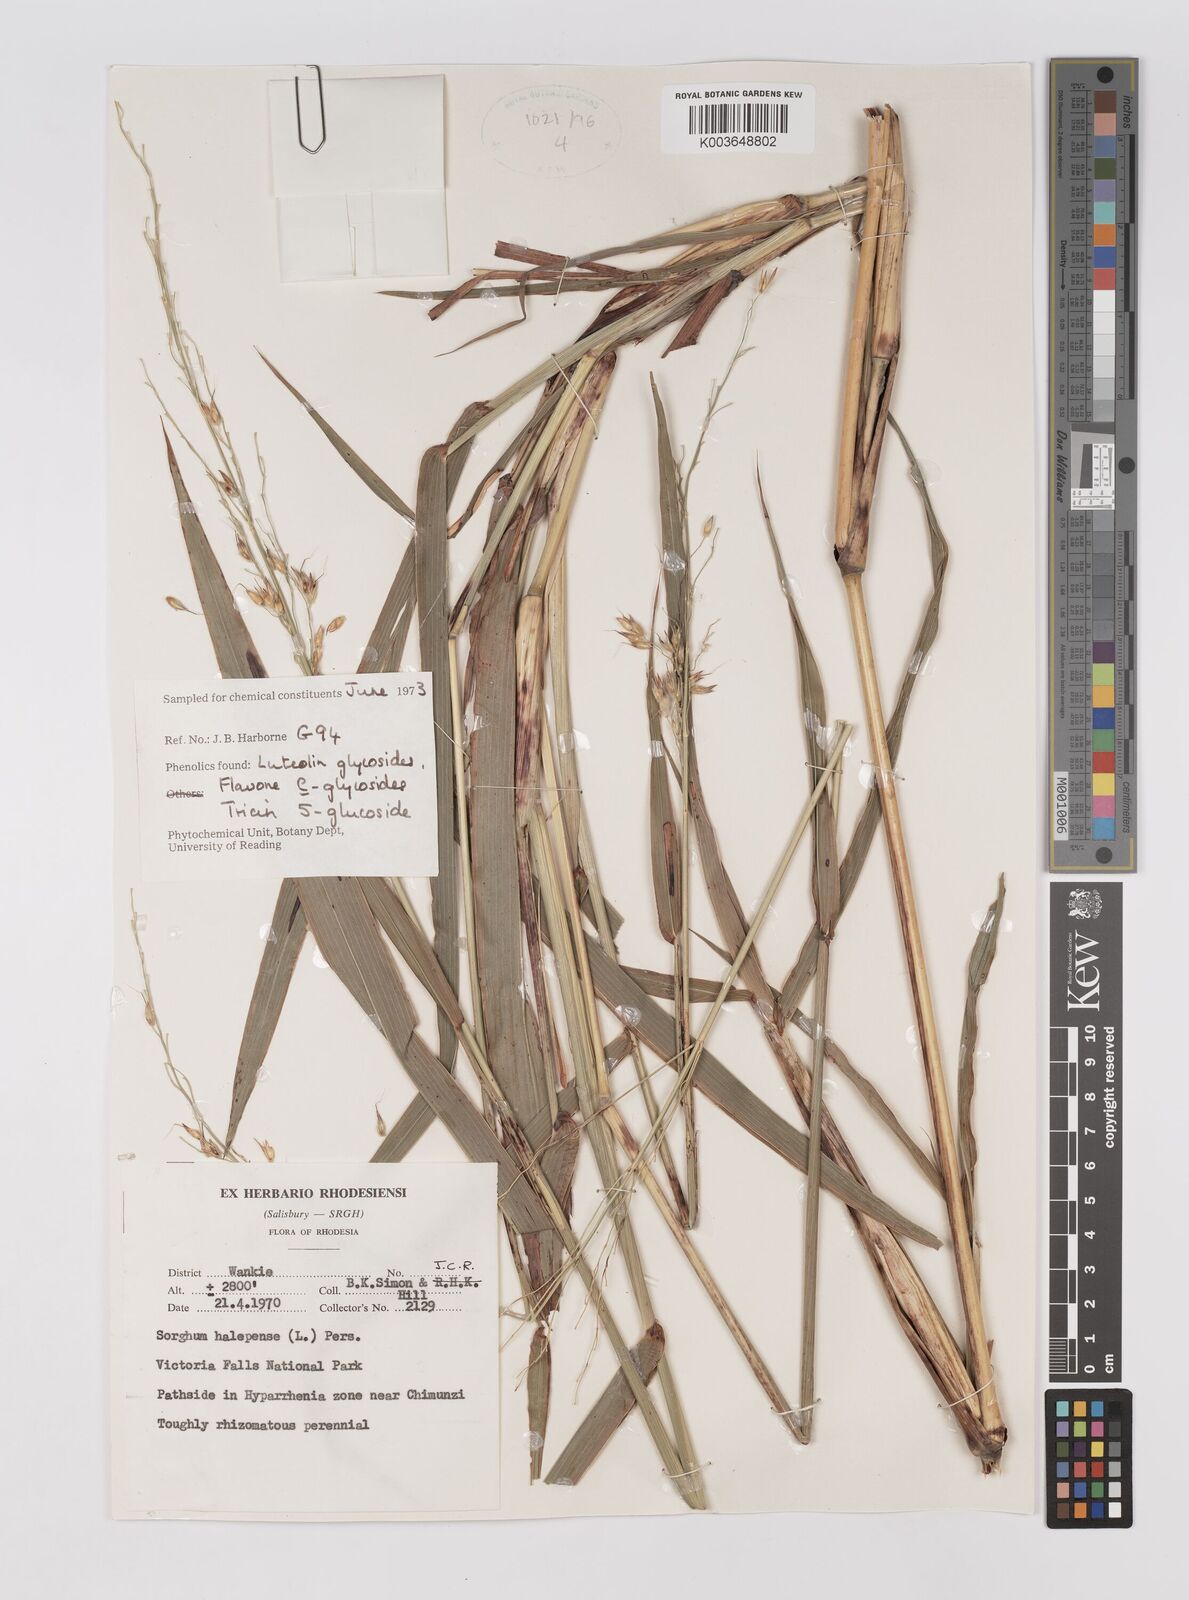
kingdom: Plantae
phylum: Tracheophyta
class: Liliopsida
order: Poales
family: Poaceae
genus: Sorghum
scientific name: Sorghum halepense
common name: Johnson-grass
